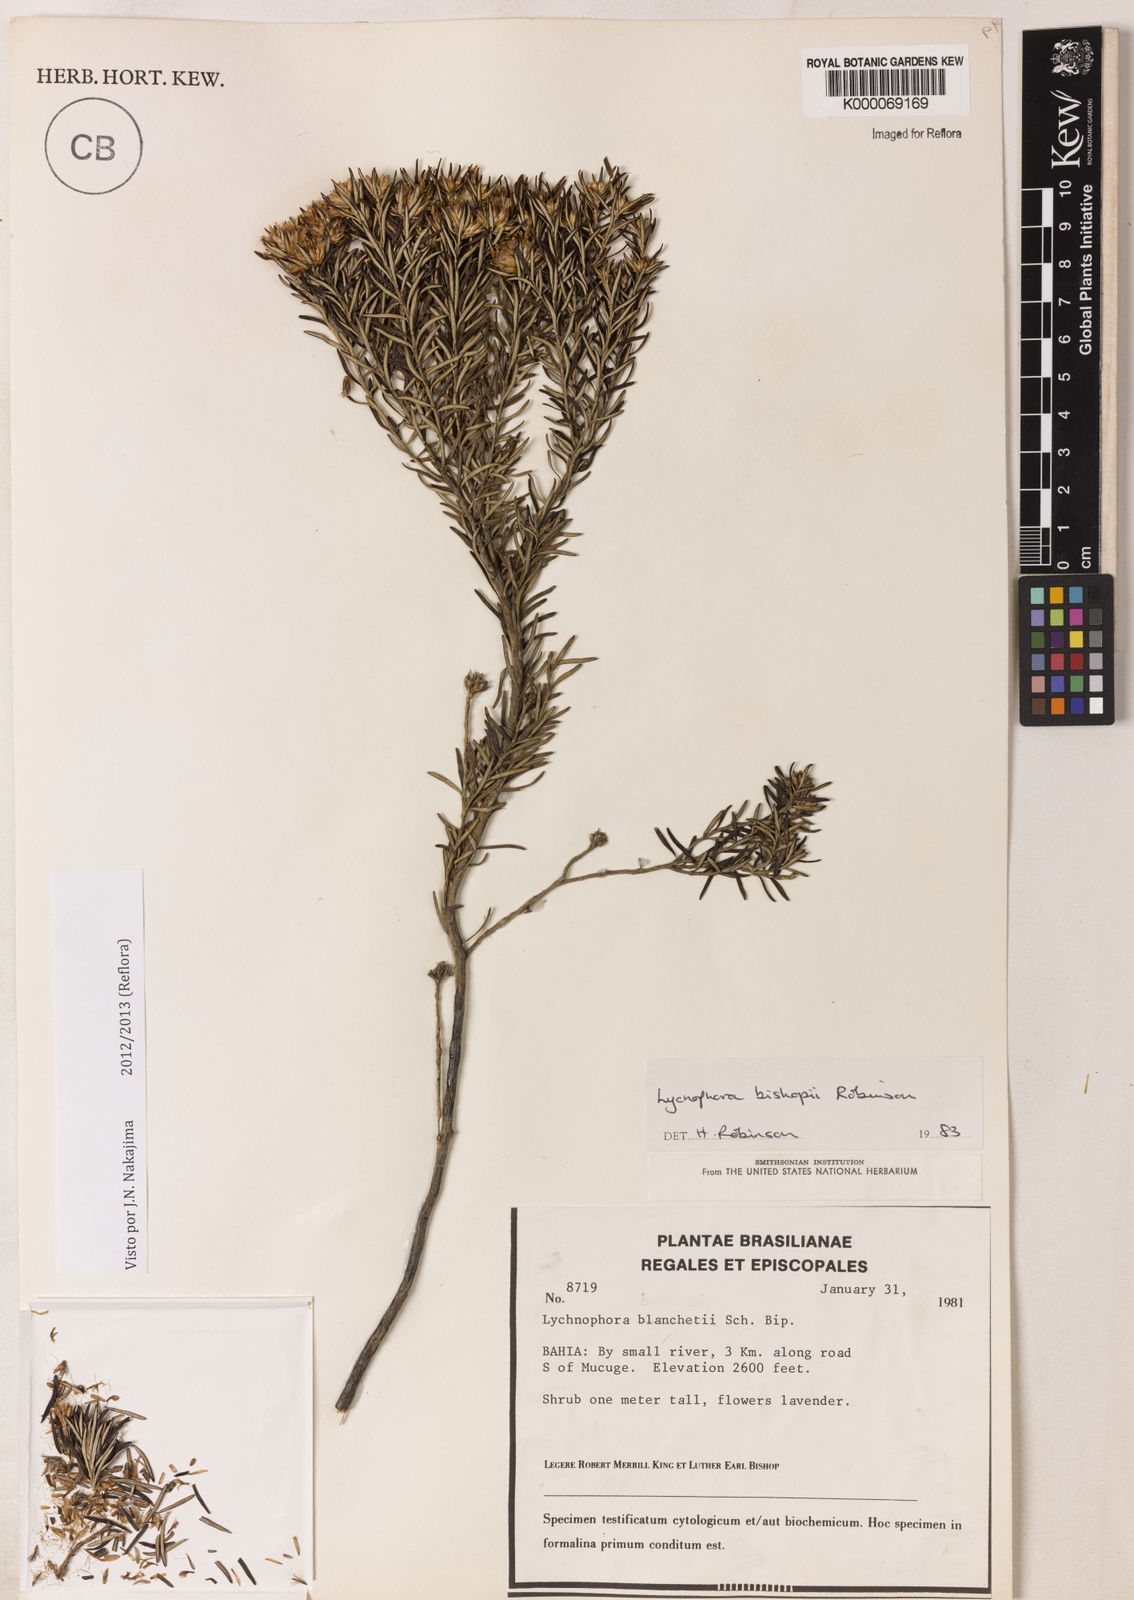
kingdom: Plantae
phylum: Tracheophyta
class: Magnoliopsida
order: Asterales
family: Asteraceae
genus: Lychnophorella
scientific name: Lychnophorella bishopii
